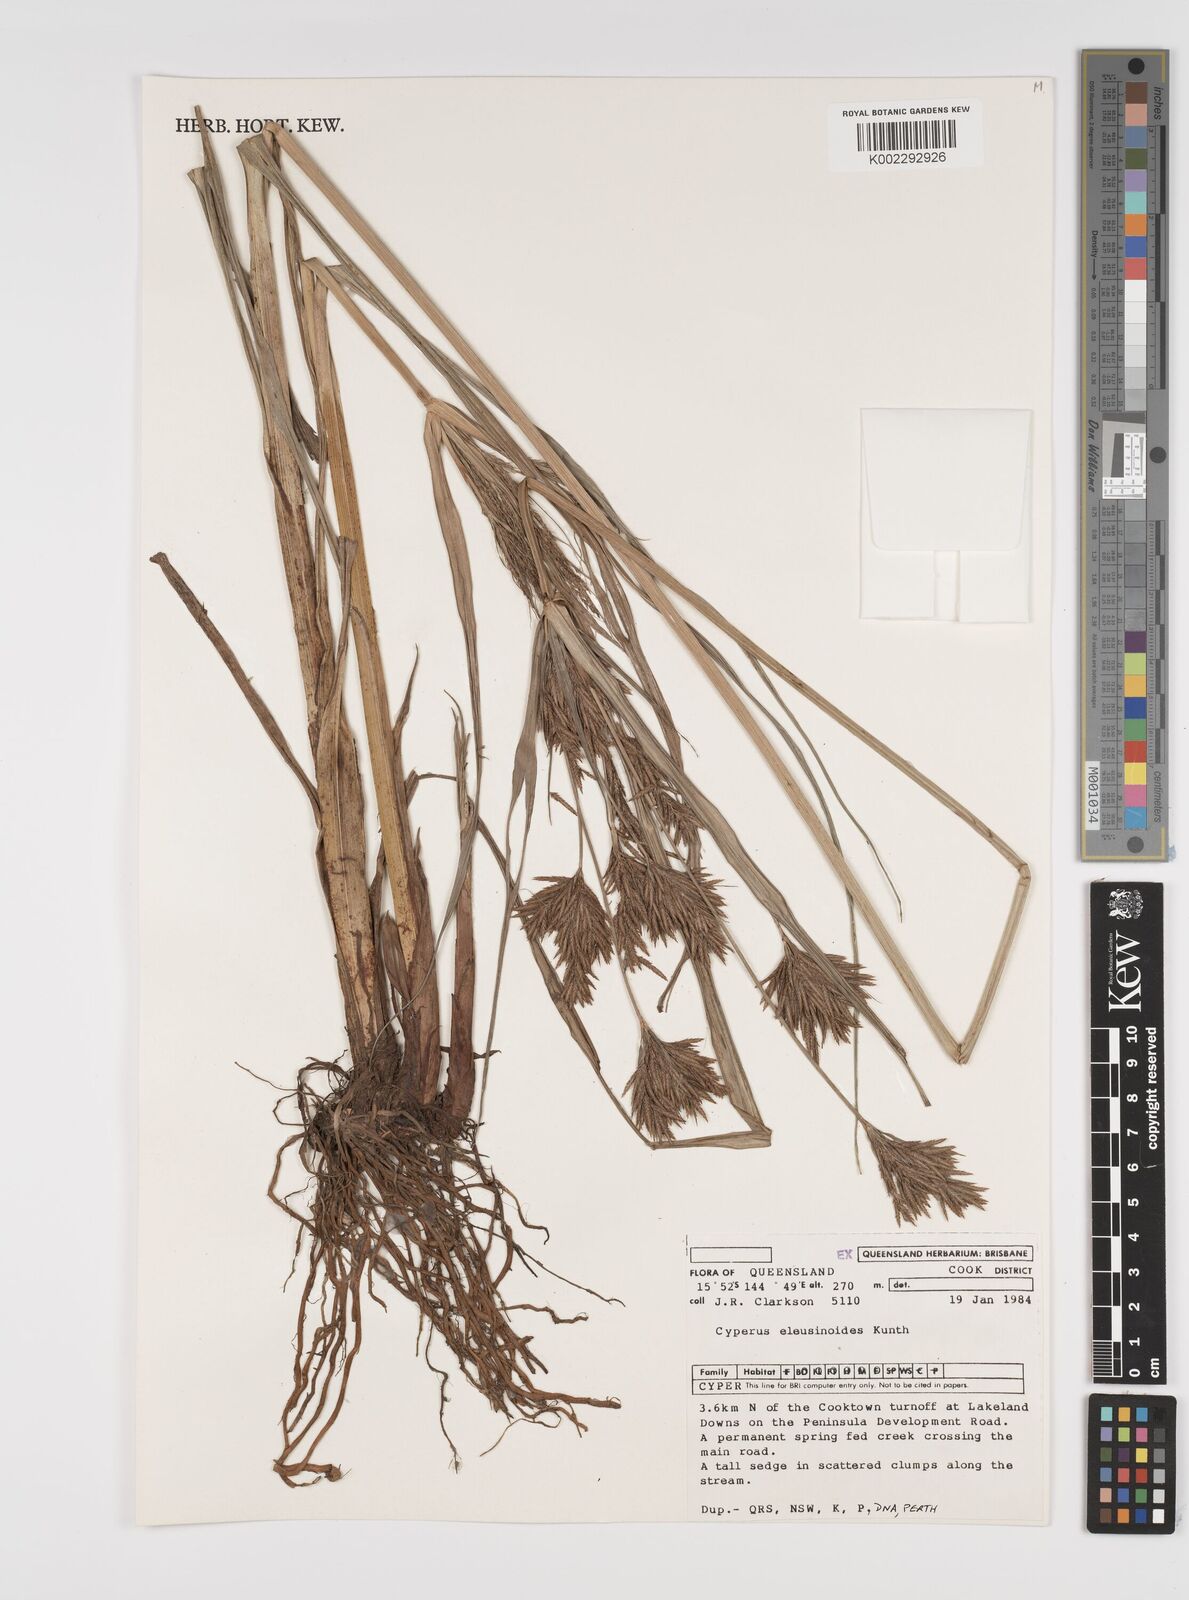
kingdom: Plantae
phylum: Tracheophyta
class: Liliopsida
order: Poales
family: Cyperaceae
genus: Cyperus
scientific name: Cyperus nutans
